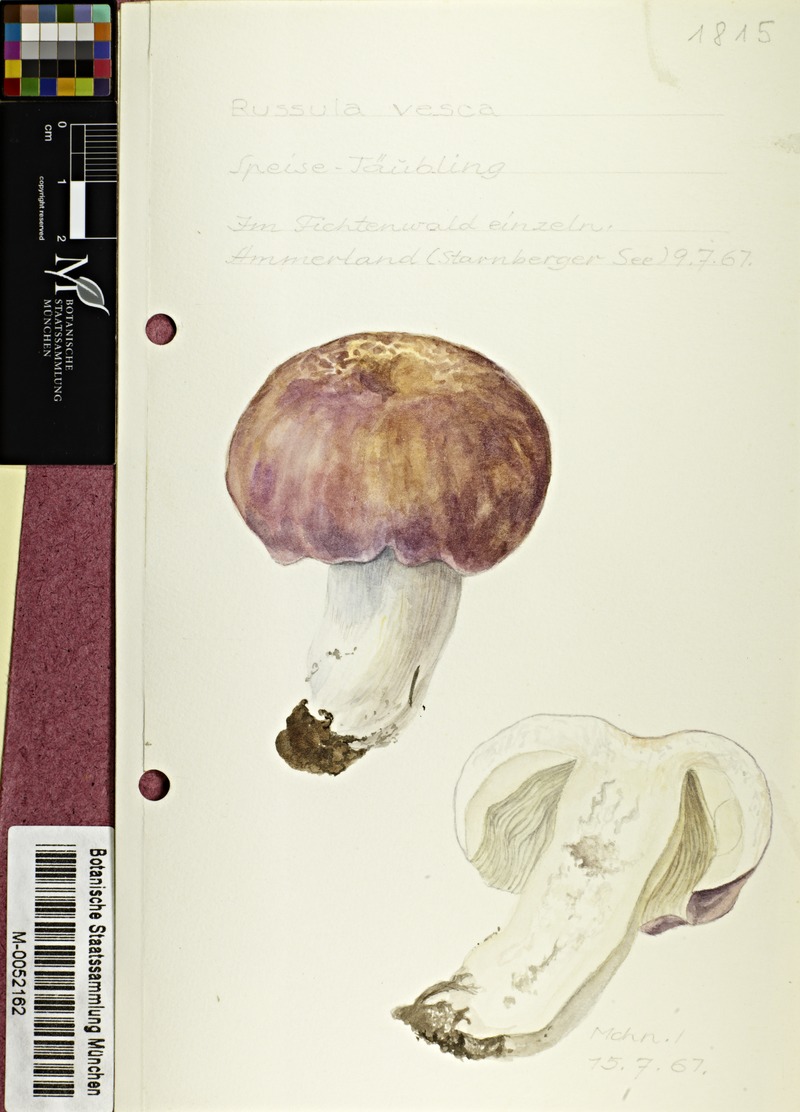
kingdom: Fungi
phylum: Basidiomycota
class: Agaricomycetes
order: Russulales
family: Russulaceae
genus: Russula
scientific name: Russula vesca
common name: Bare-toothed russula
